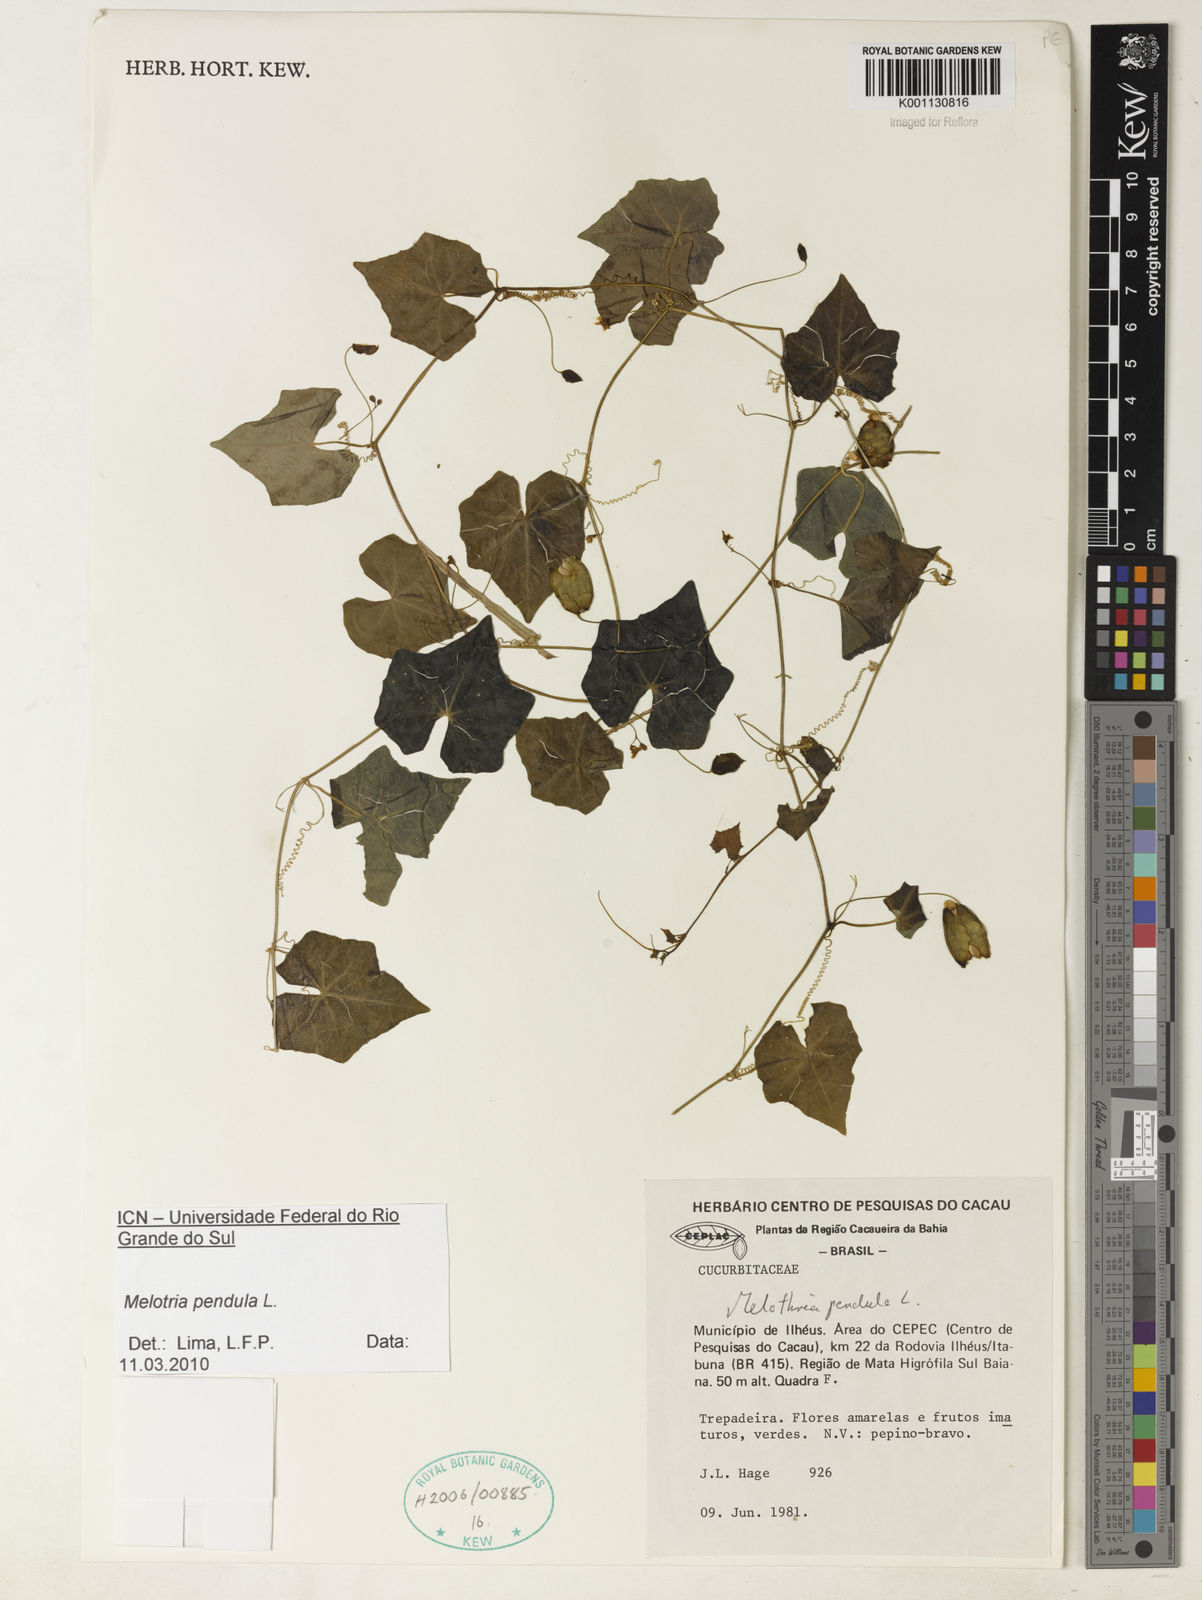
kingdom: Plantae
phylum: Tracheophyta
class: Magnoliopsida
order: Cucurbitales
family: Cucurbitaceae
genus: Melothria
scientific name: Melothria pendula
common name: Creeping-cucumber
